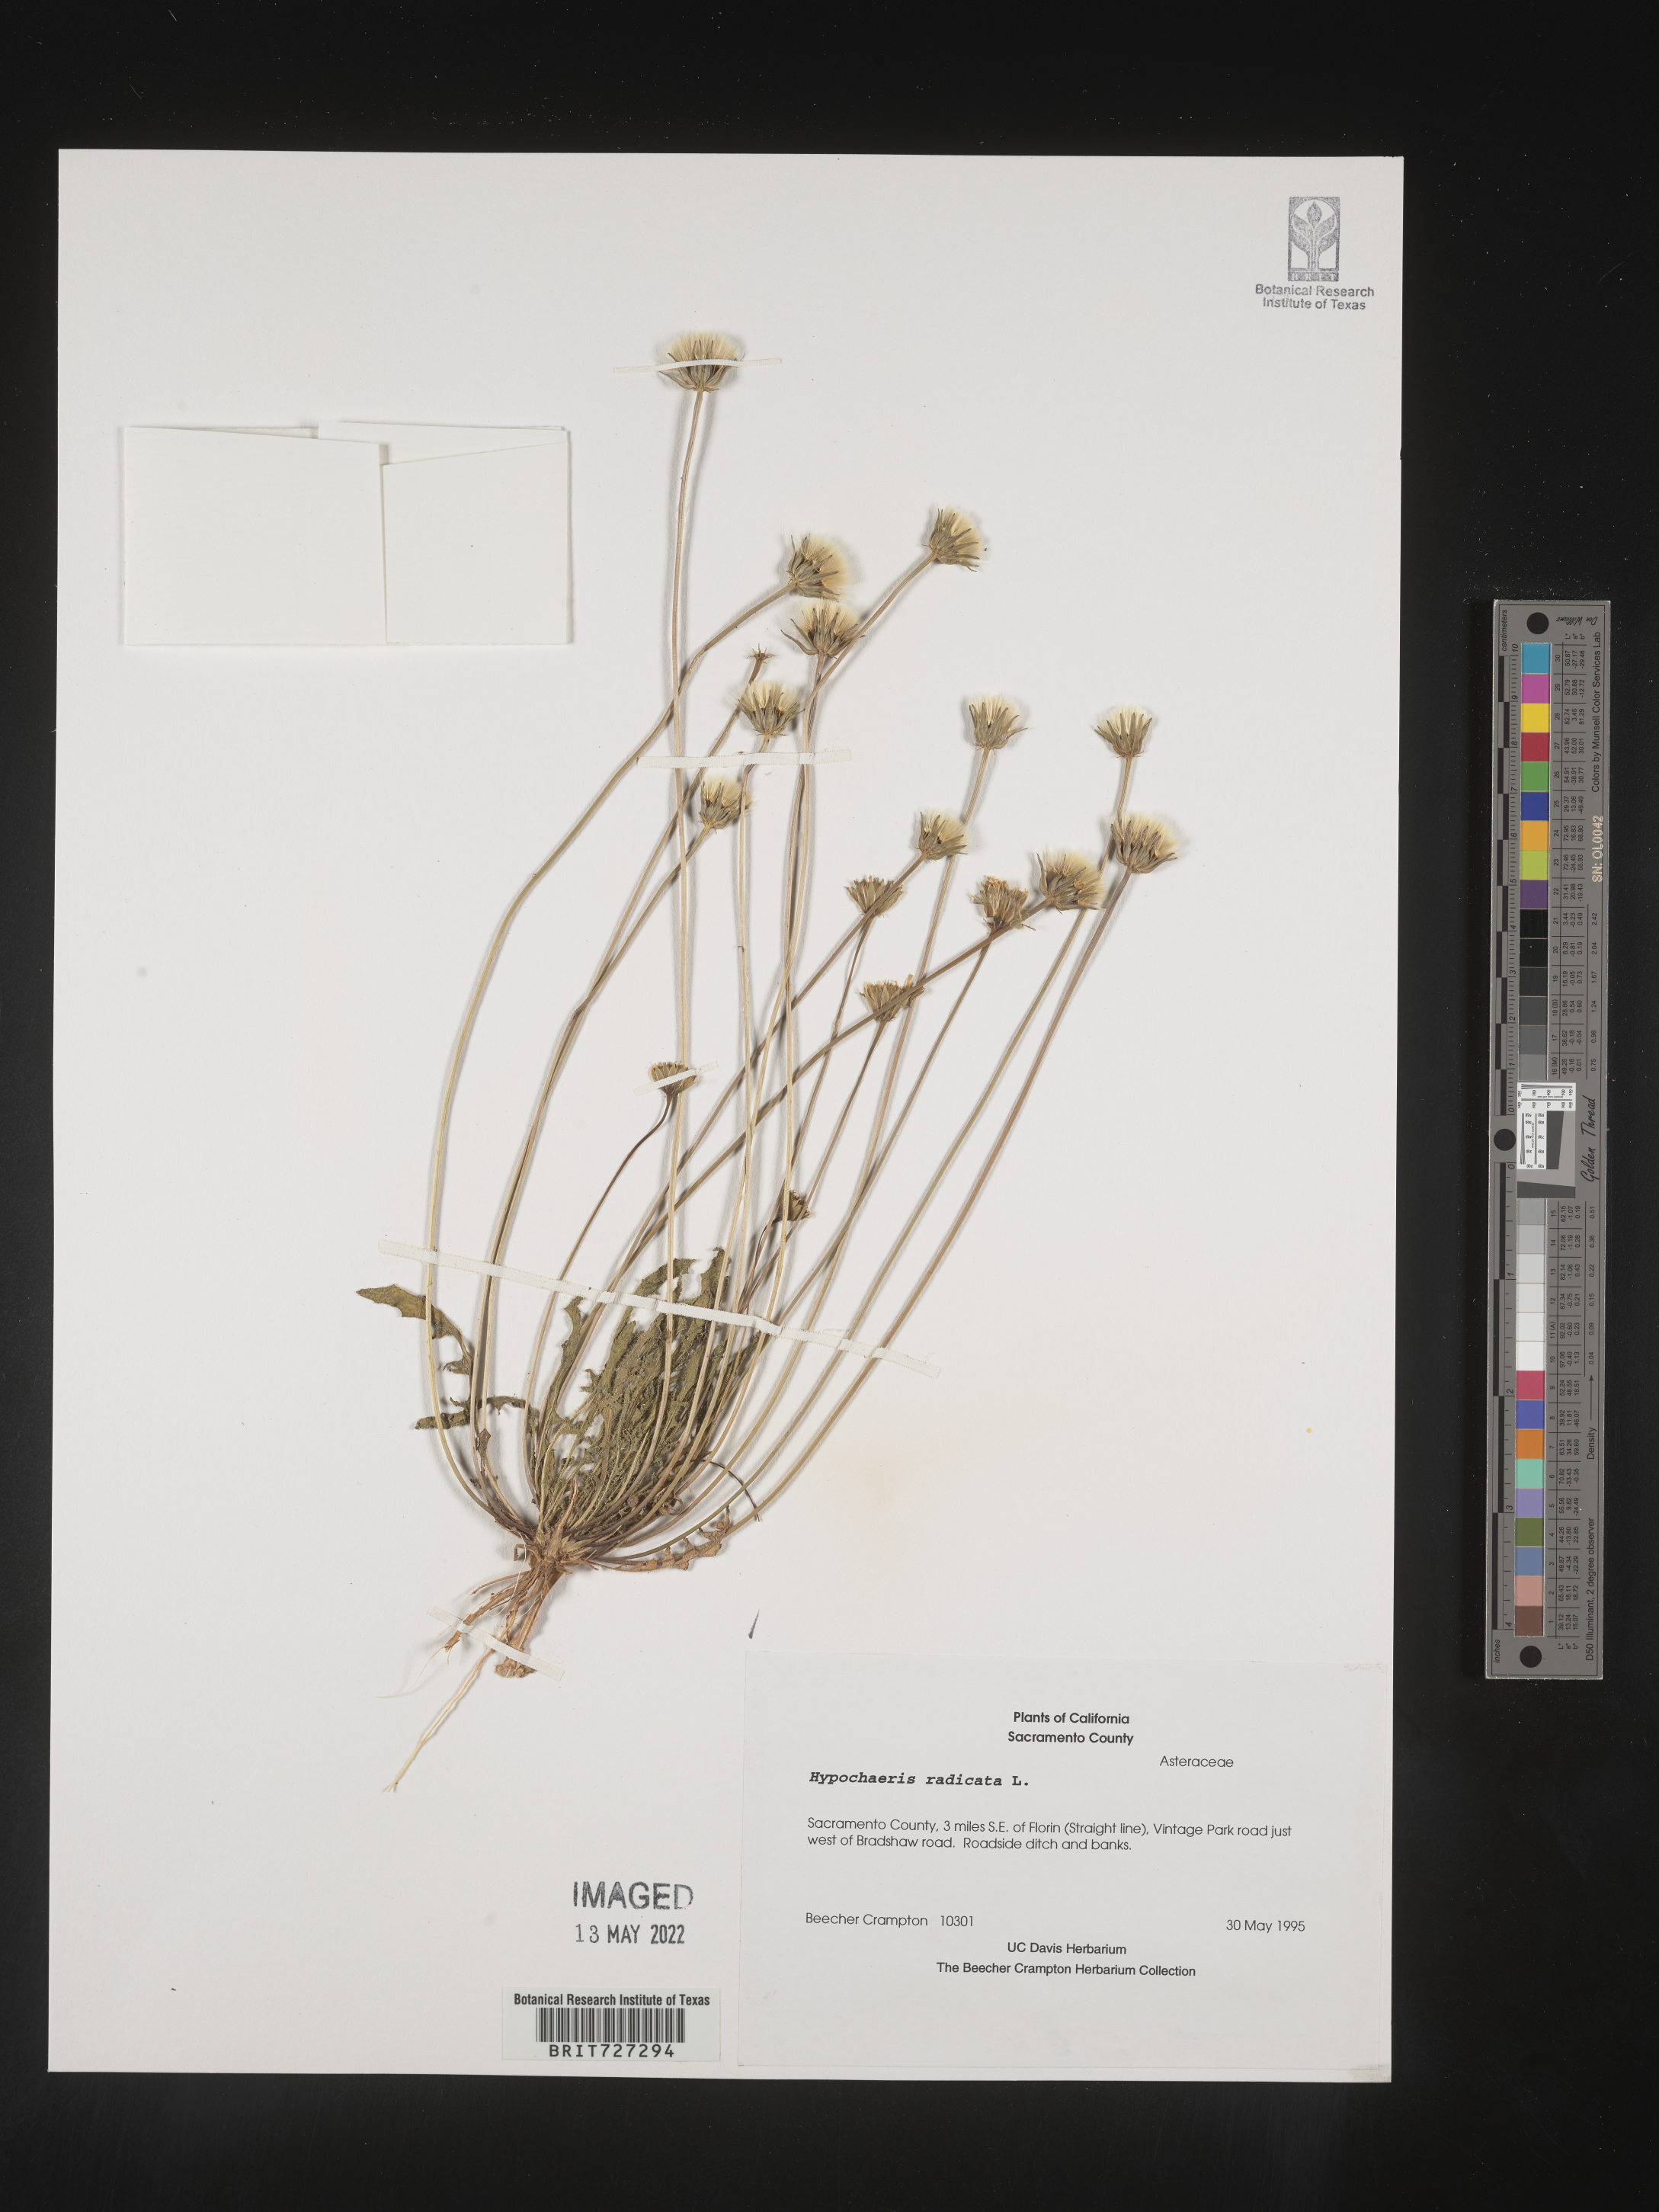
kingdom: Plantae
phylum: Tracheophyta
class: Magnoliopsida
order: Asterales
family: Asteraceae
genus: Hypochaeris
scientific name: Hypochaeris radicata
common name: Flatweed
